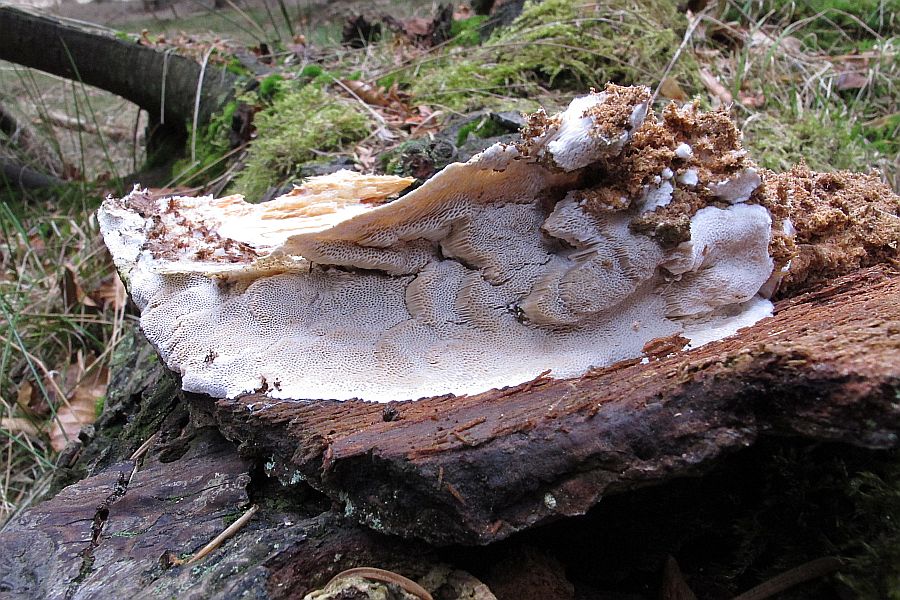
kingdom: Fungi
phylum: Basidiomycota
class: Agaricomycetes
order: Polyporales
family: Gelatoporiaceae
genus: Cinereomyces
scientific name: Cinereomyces lindbladii
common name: almindelig gråporesvamp
